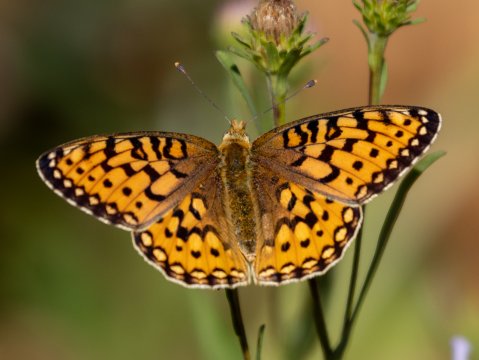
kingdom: Animalia
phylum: Arthropoda
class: Insecta
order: Lepidoptera
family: Nymphalidae
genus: Speyeria
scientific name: Speyeria mormonia
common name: Mormon Fritillary
